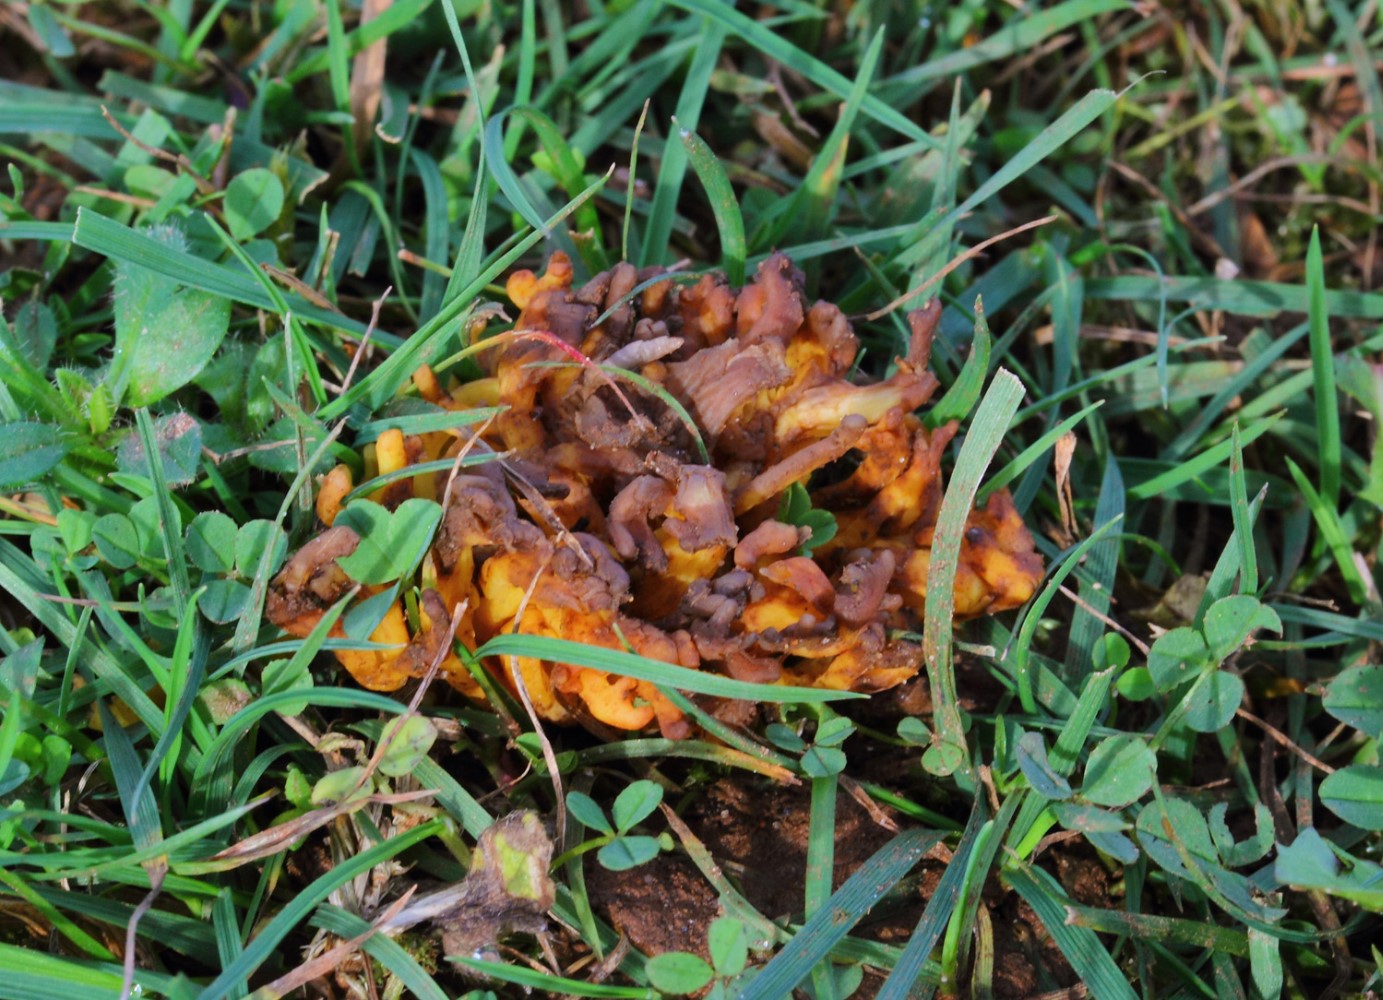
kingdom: Fungi
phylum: Basidiomycota
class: Agaricomycetes
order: Agaricales
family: Clavariaceae
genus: Clavulinopsis
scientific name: Clavulinopsis corniculata
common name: eng-køllesvamp
